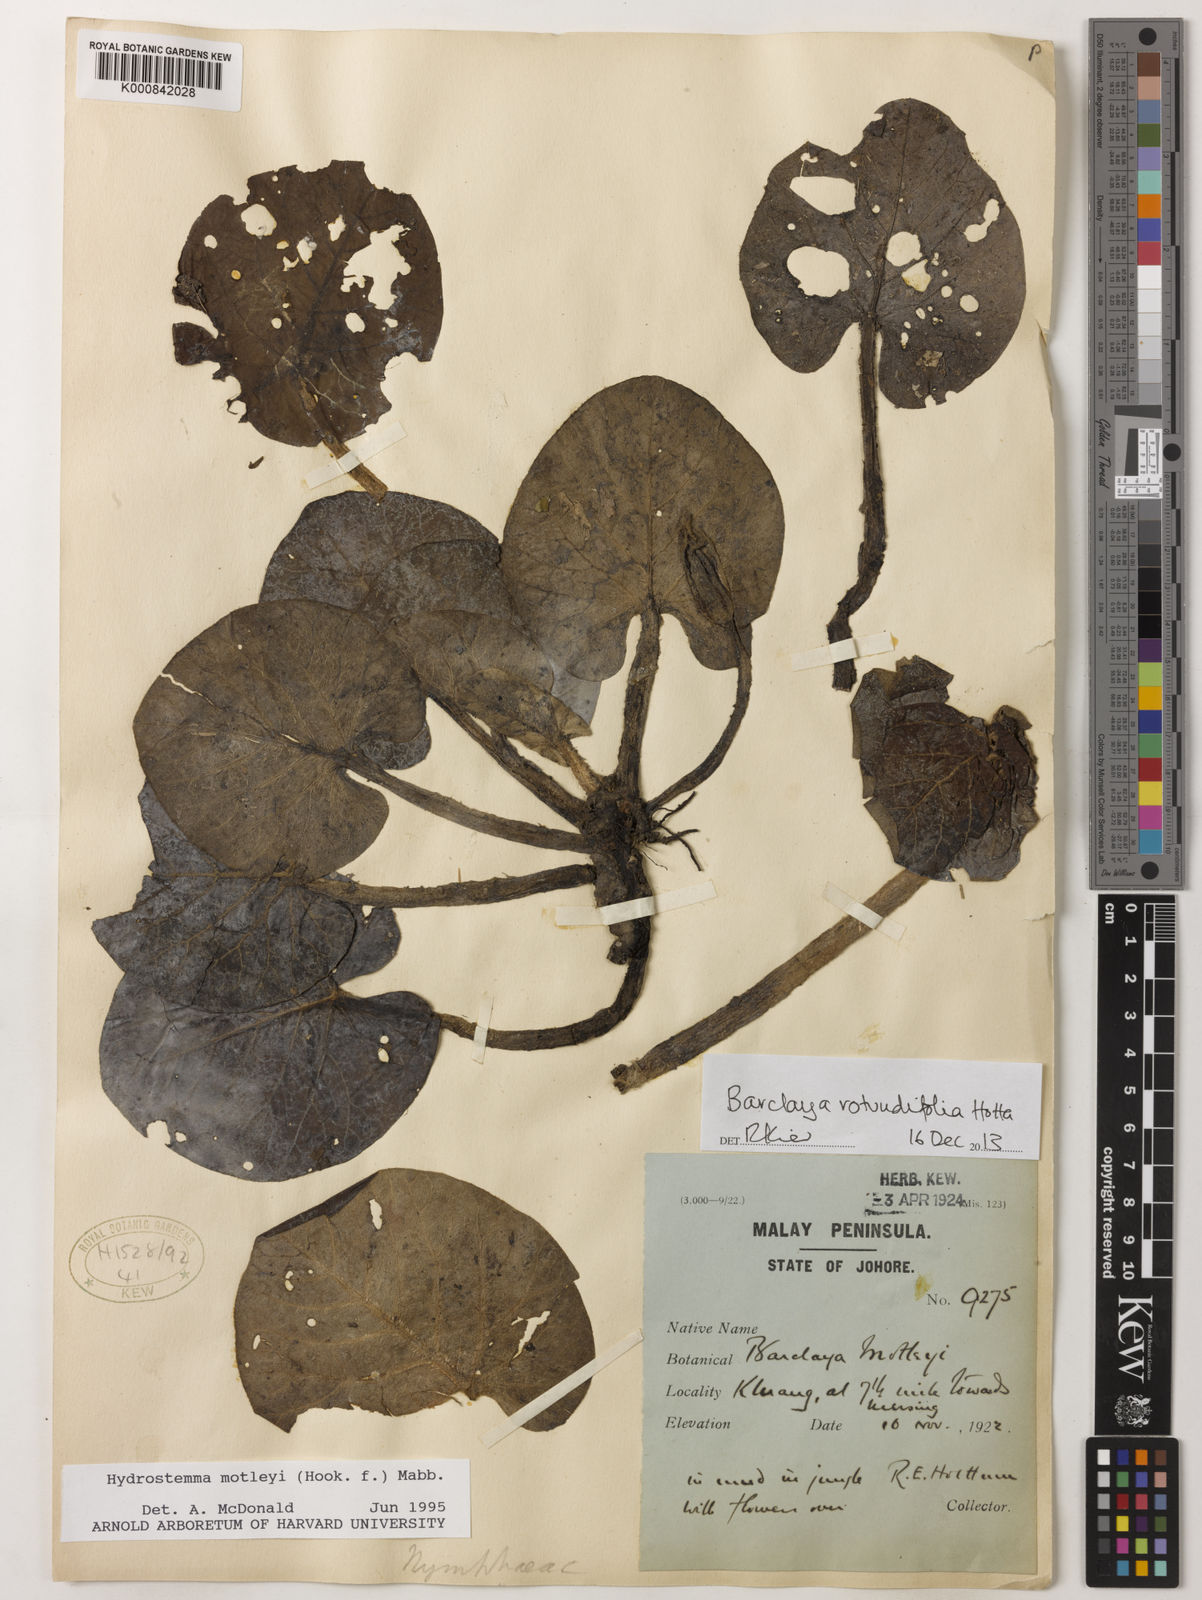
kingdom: Plantae
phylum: Tracheophyta
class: Magnoliopsida
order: Nymphaeales
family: Nymphaeaceae
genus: Barclaya
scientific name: Barclaya rotundifolia
